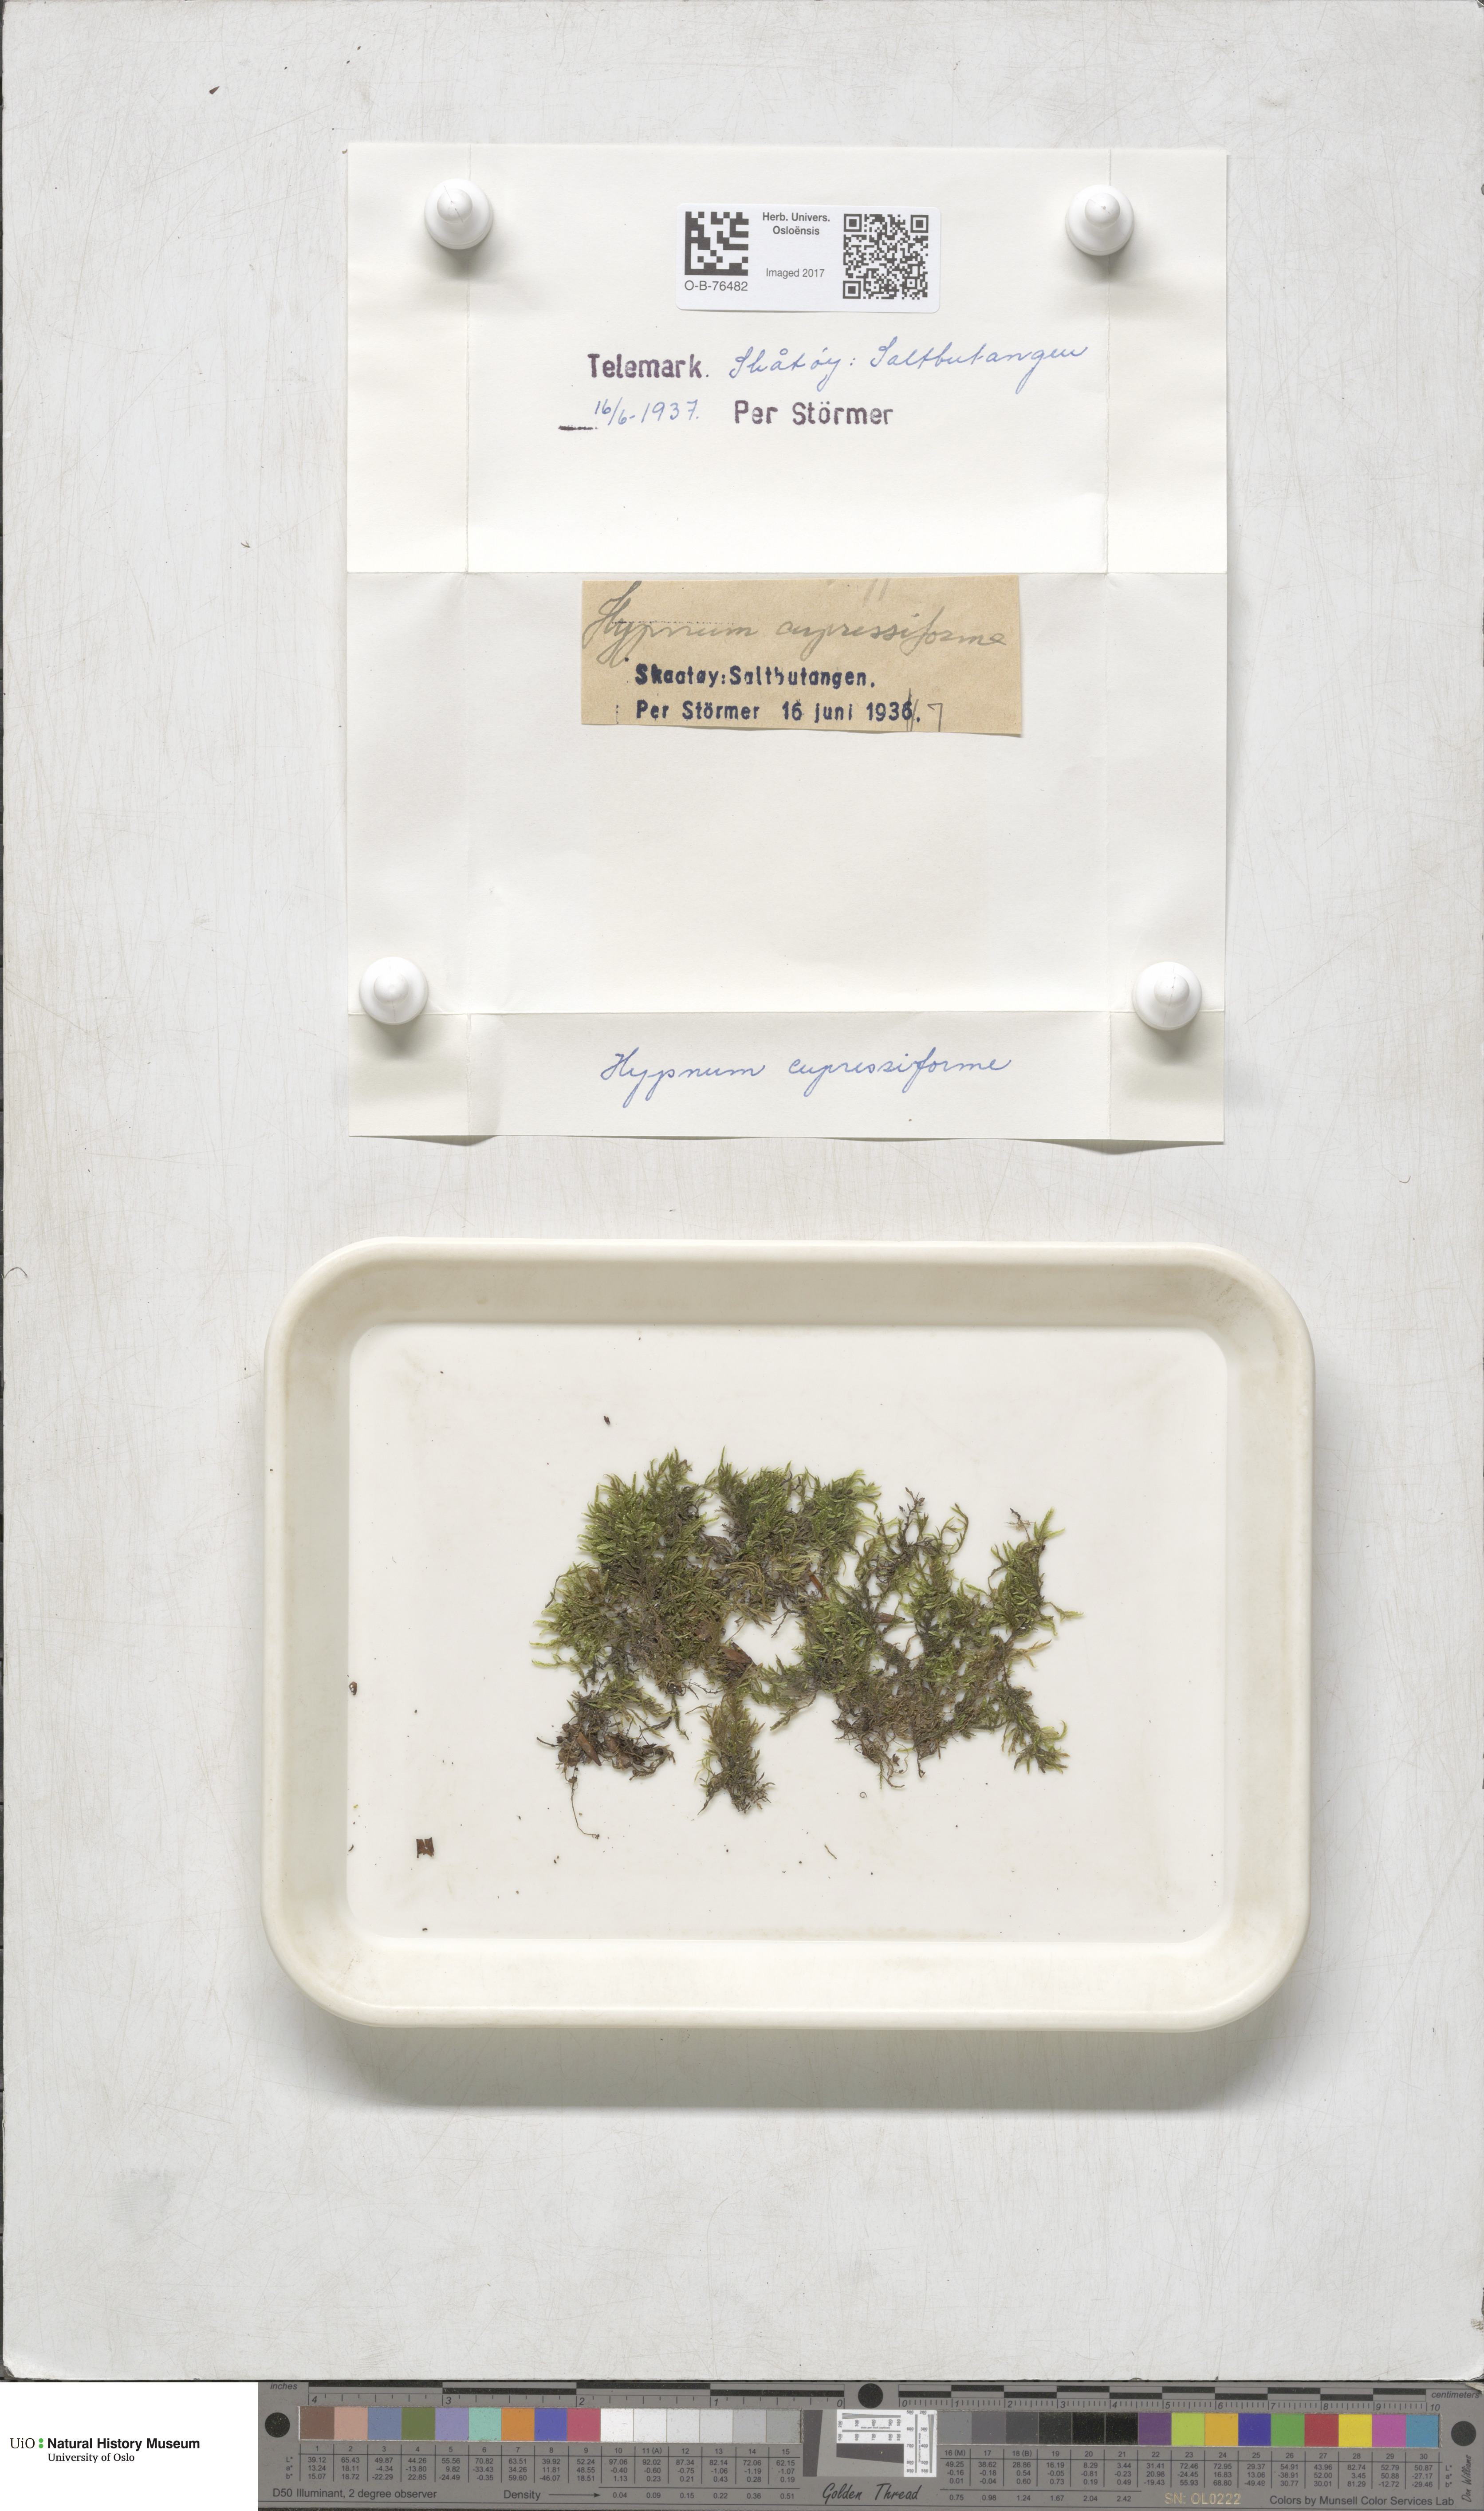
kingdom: Plantae
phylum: Bryophyta
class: Bryopsida
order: Hypnales
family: Hypnaceae
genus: Hypnum
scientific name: Hypnum cupressiforme
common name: Cypress-leaved plait-moss
